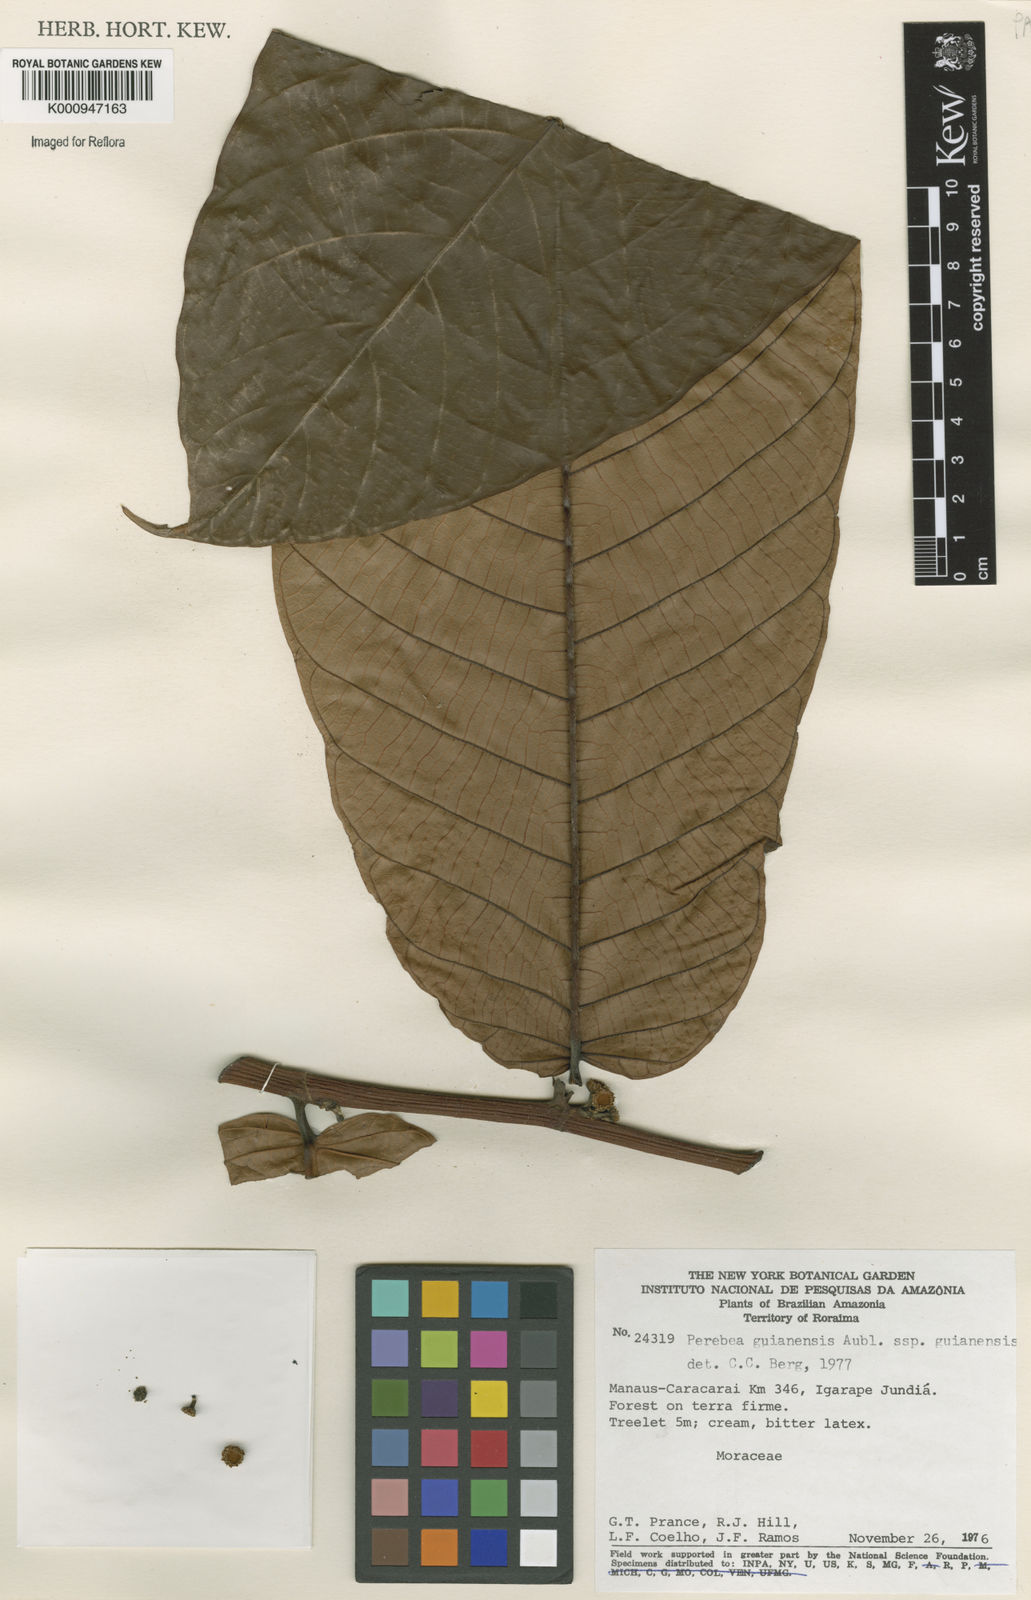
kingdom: Plantae
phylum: Tracheophyta
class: Magnoliopsida
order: Rosales
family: Moraceae
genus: Perebea
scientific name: Perebea
